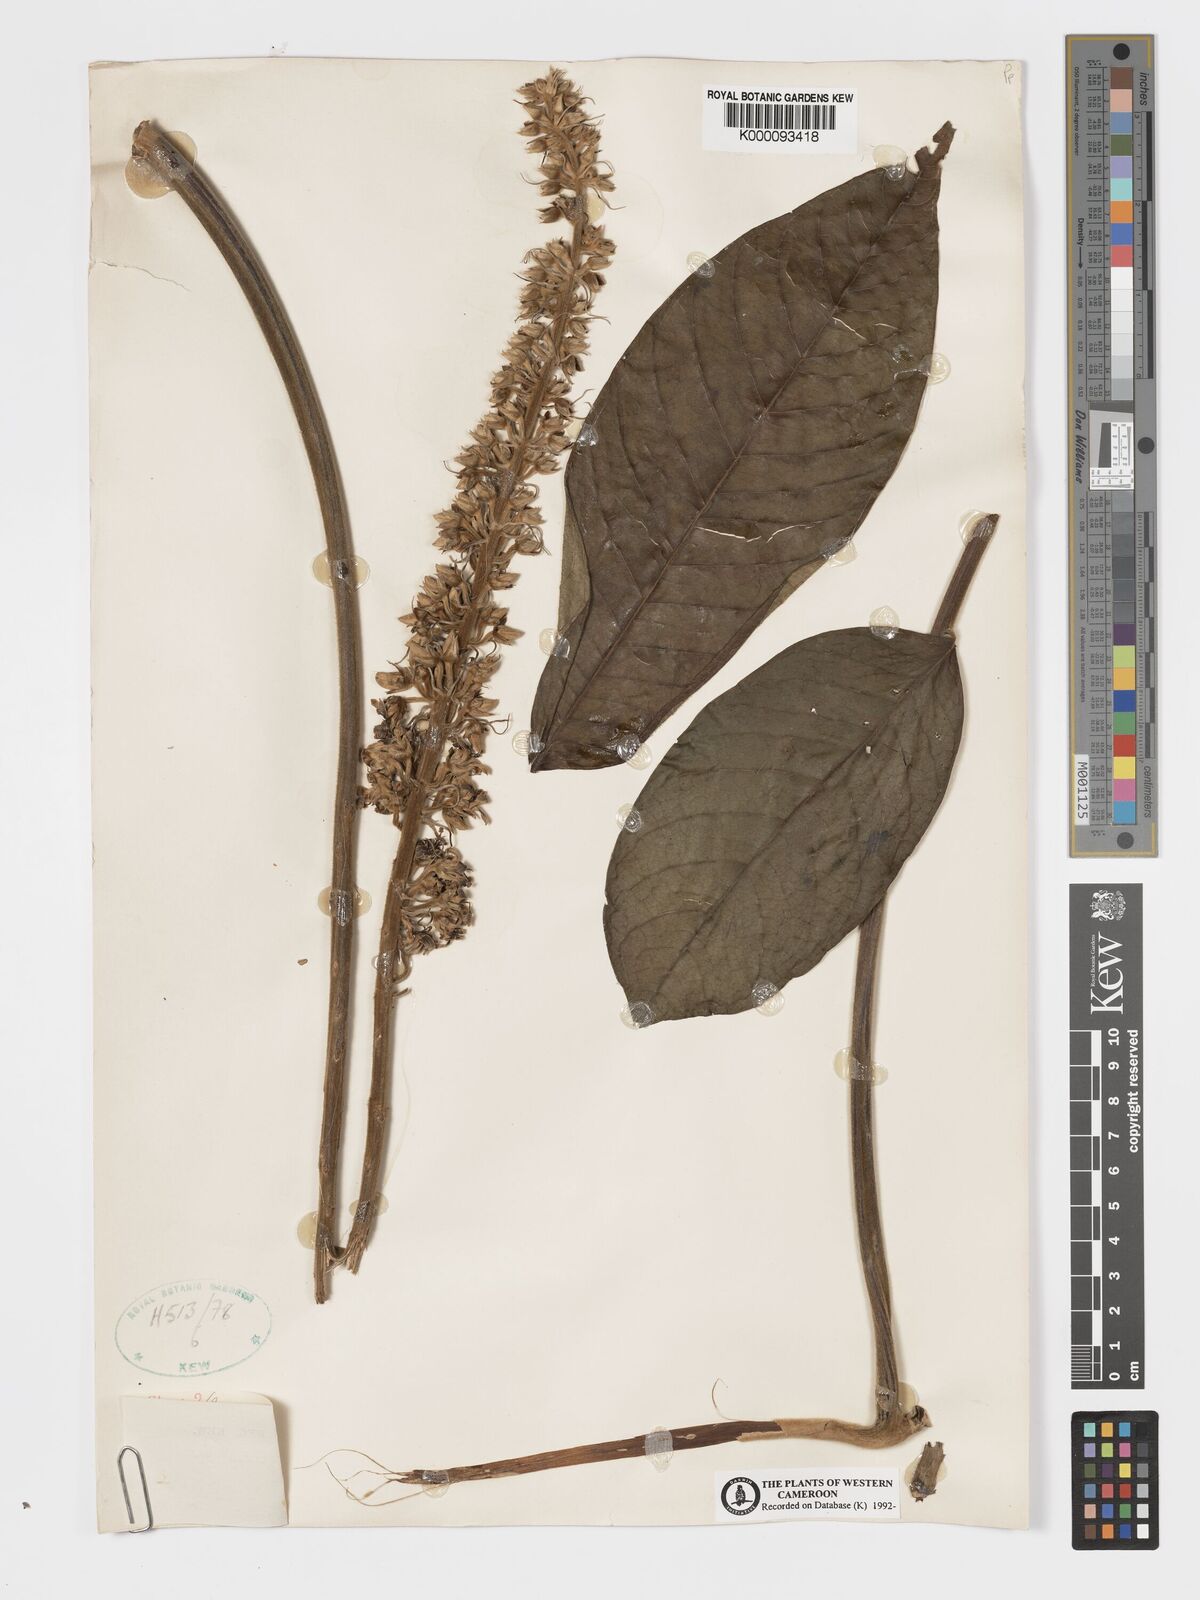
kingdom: Plantae
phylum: Tracheophyta
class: Magnoliopsida
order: Geraniales
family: Melianthaceae
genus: Bersama
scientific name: Bersama abyssinica
